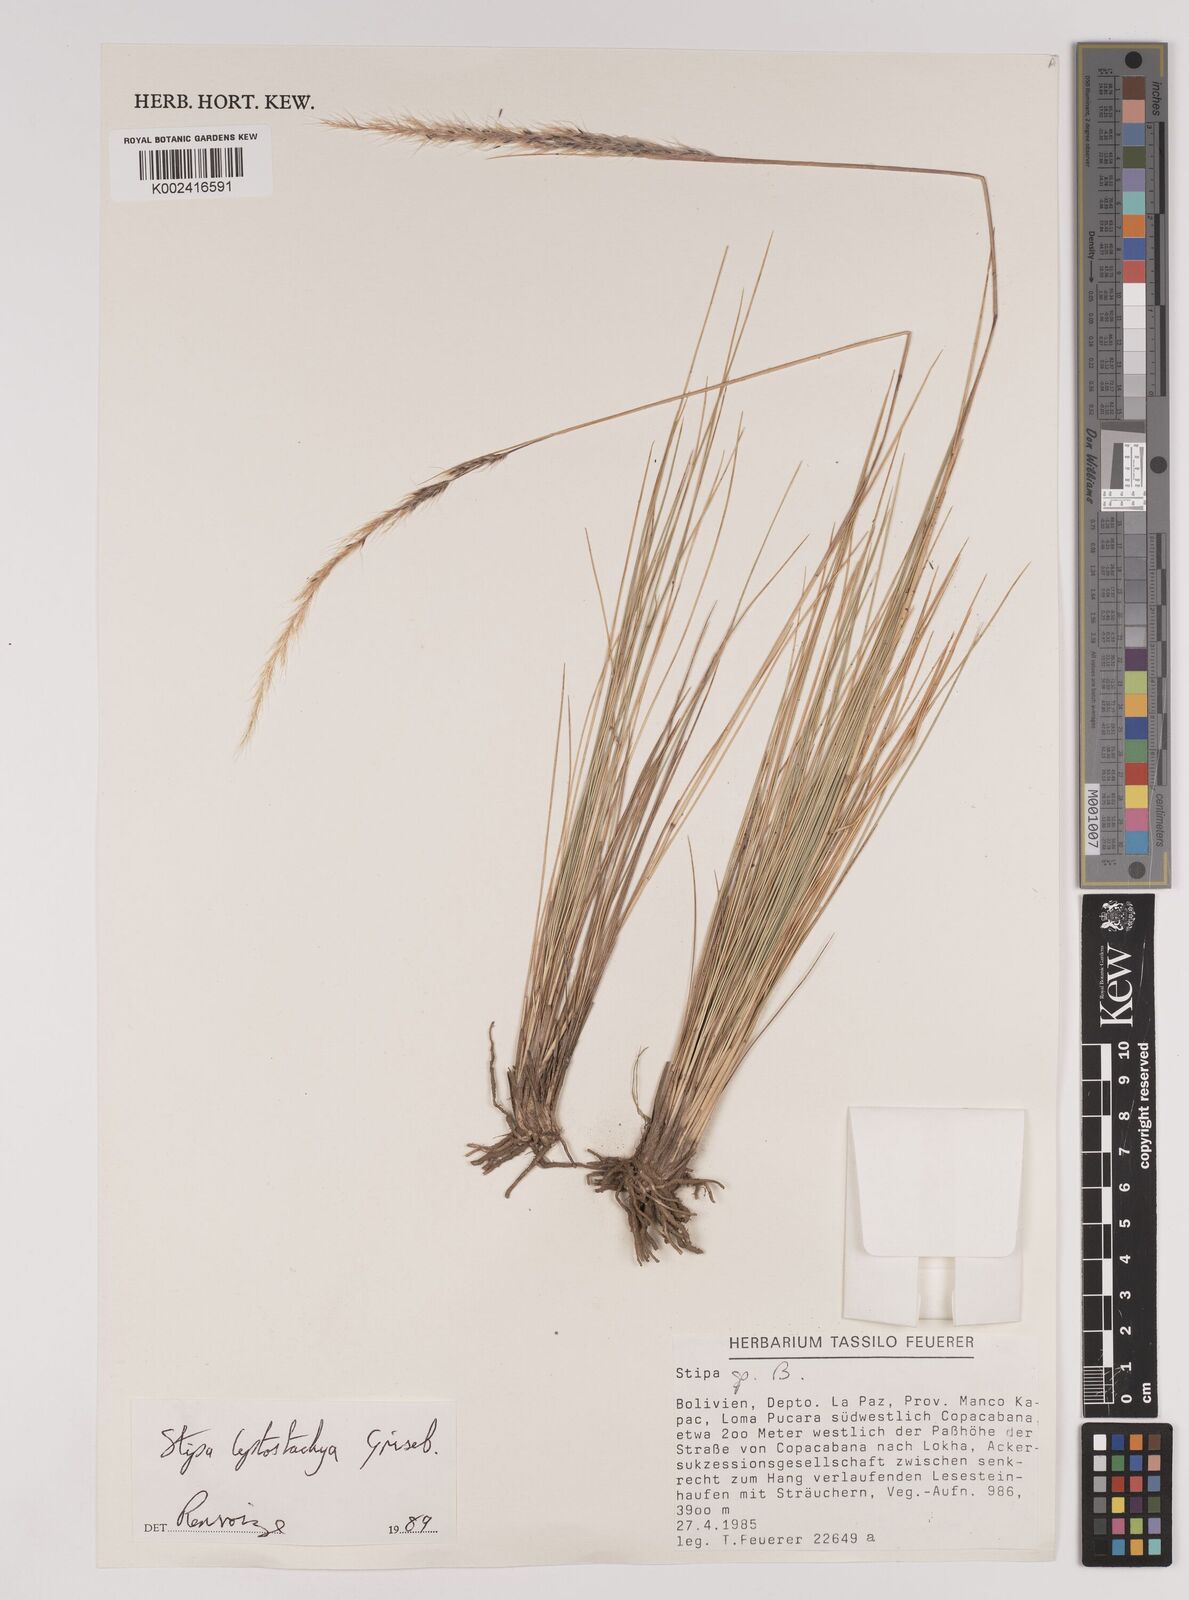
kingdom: Plantae
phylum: Tracheophyta
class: Liliopsida
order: Poales
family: Poaceae
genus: Jarava
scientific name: Jarava leptostachya
